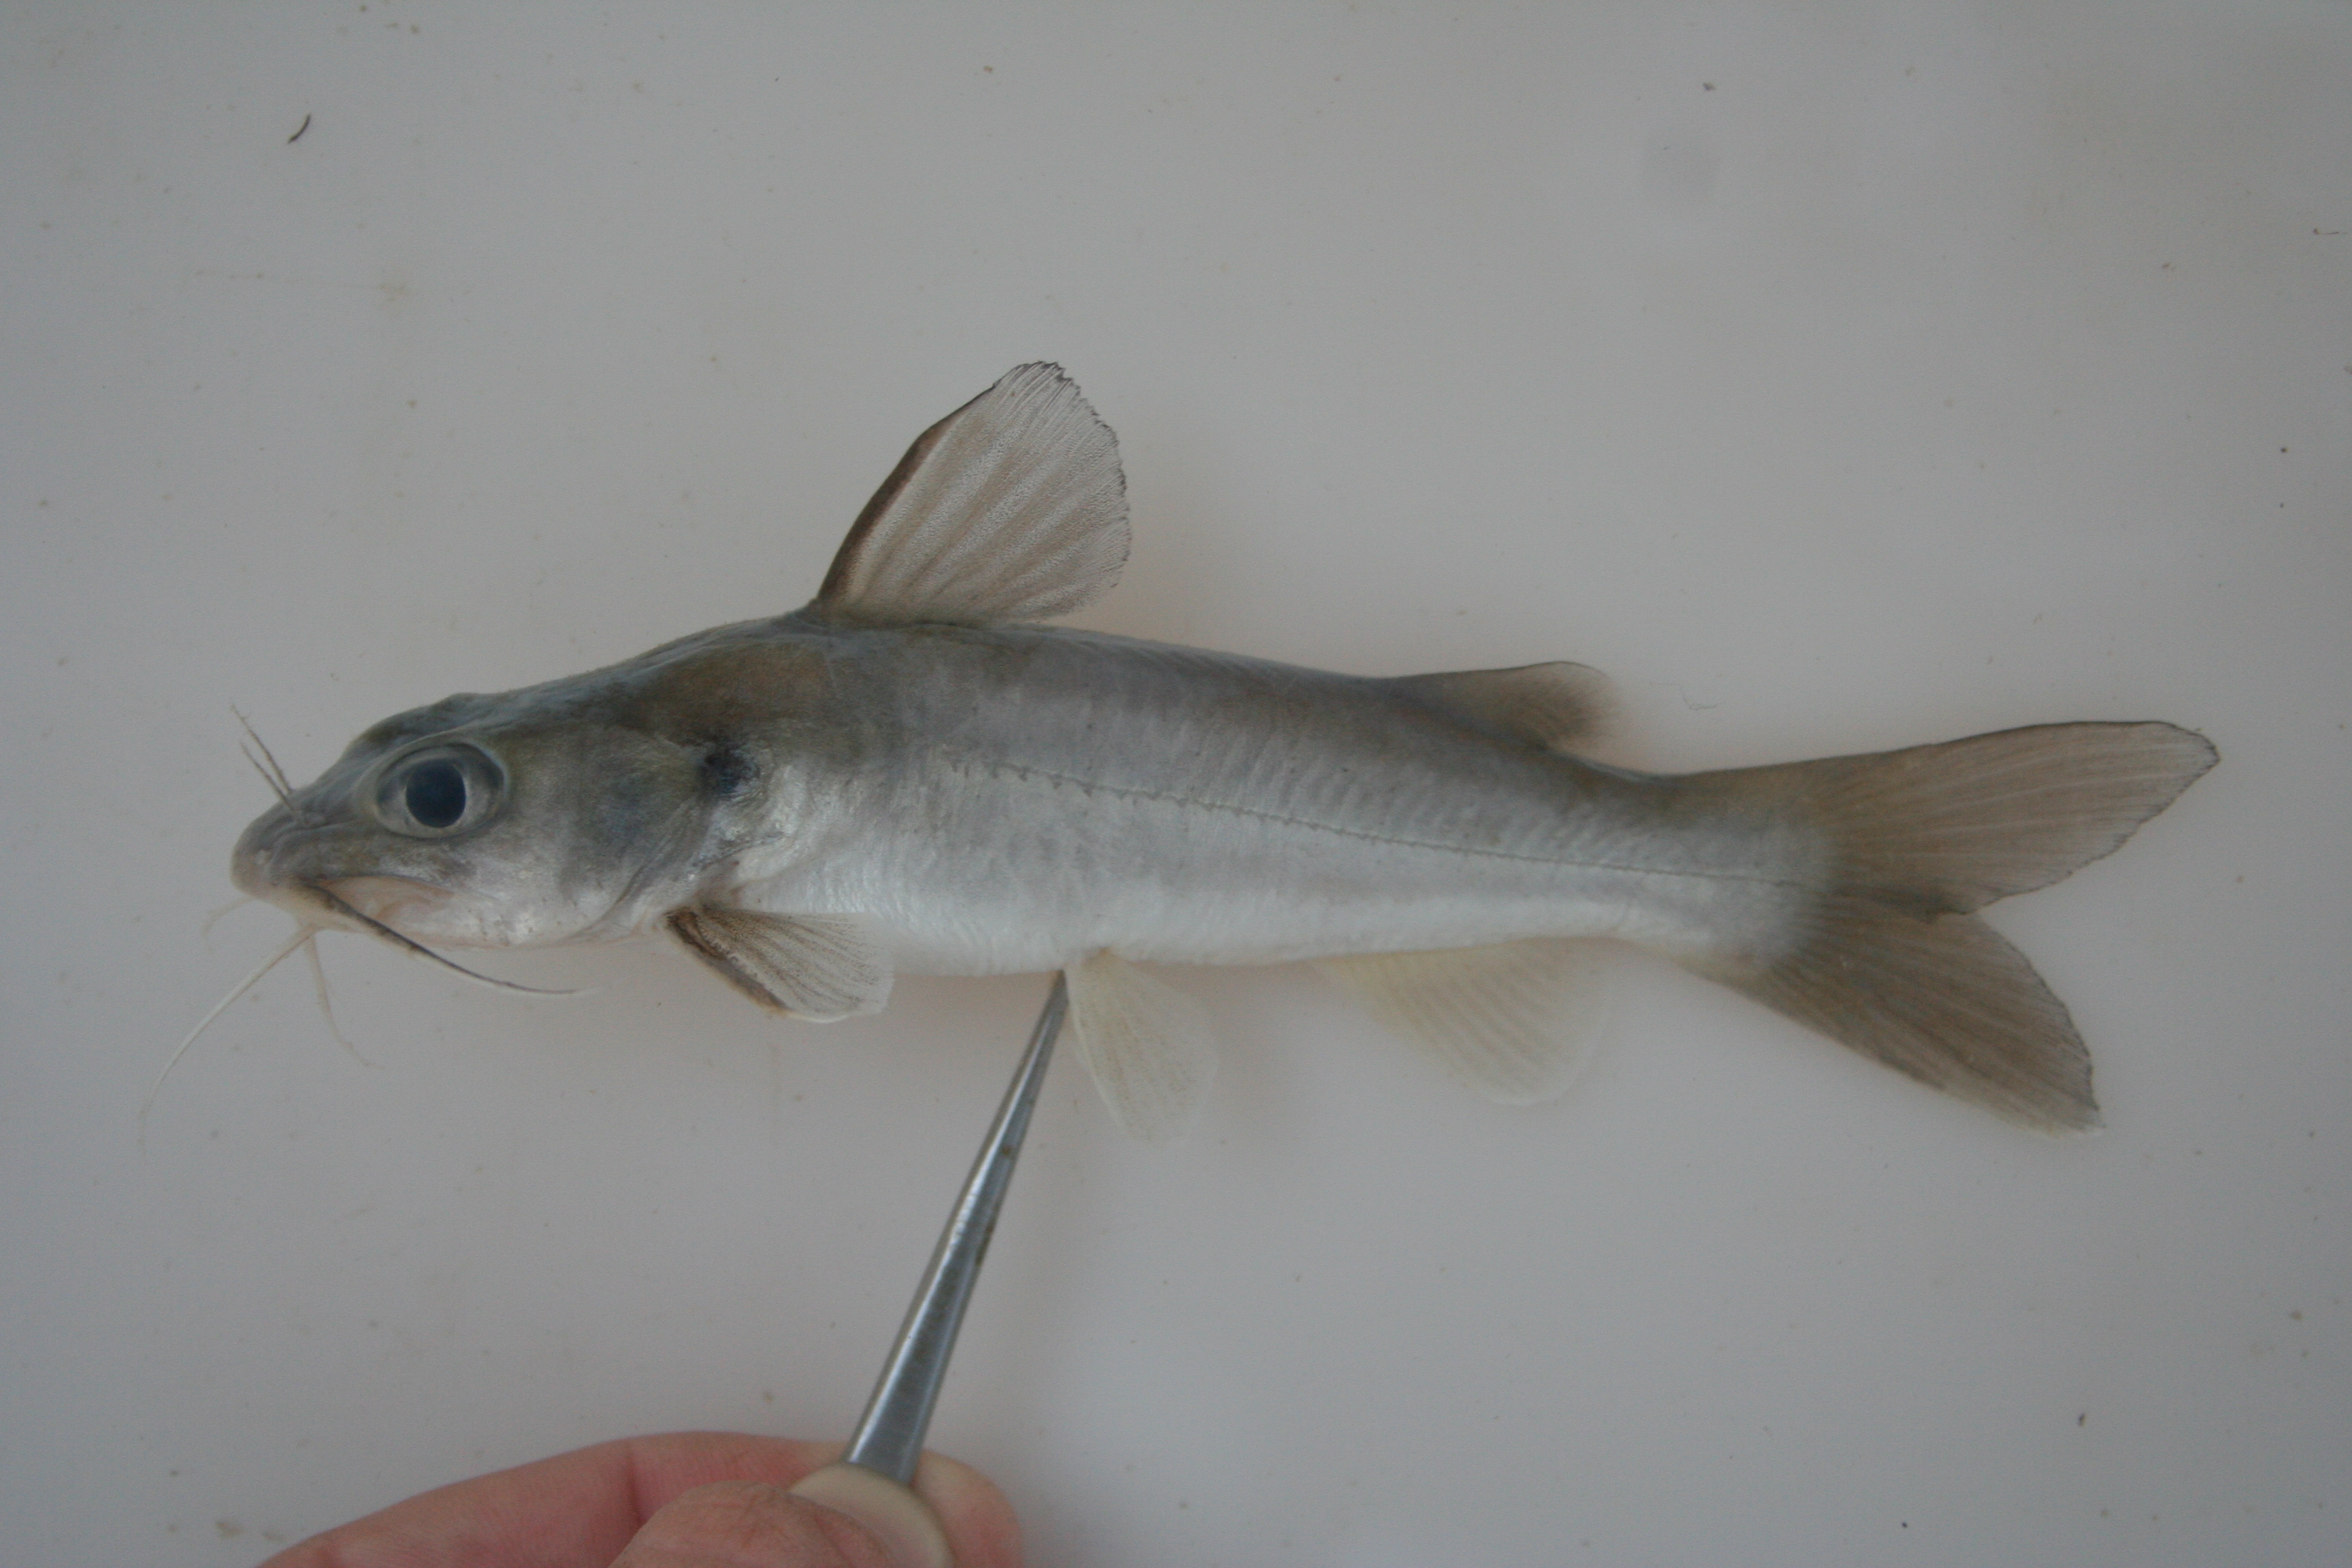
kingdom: Animalia
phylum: Chordata
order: Siluriformes
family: Claroteidae
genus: Chrysichthys
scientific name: Chrysichthys bocagii
